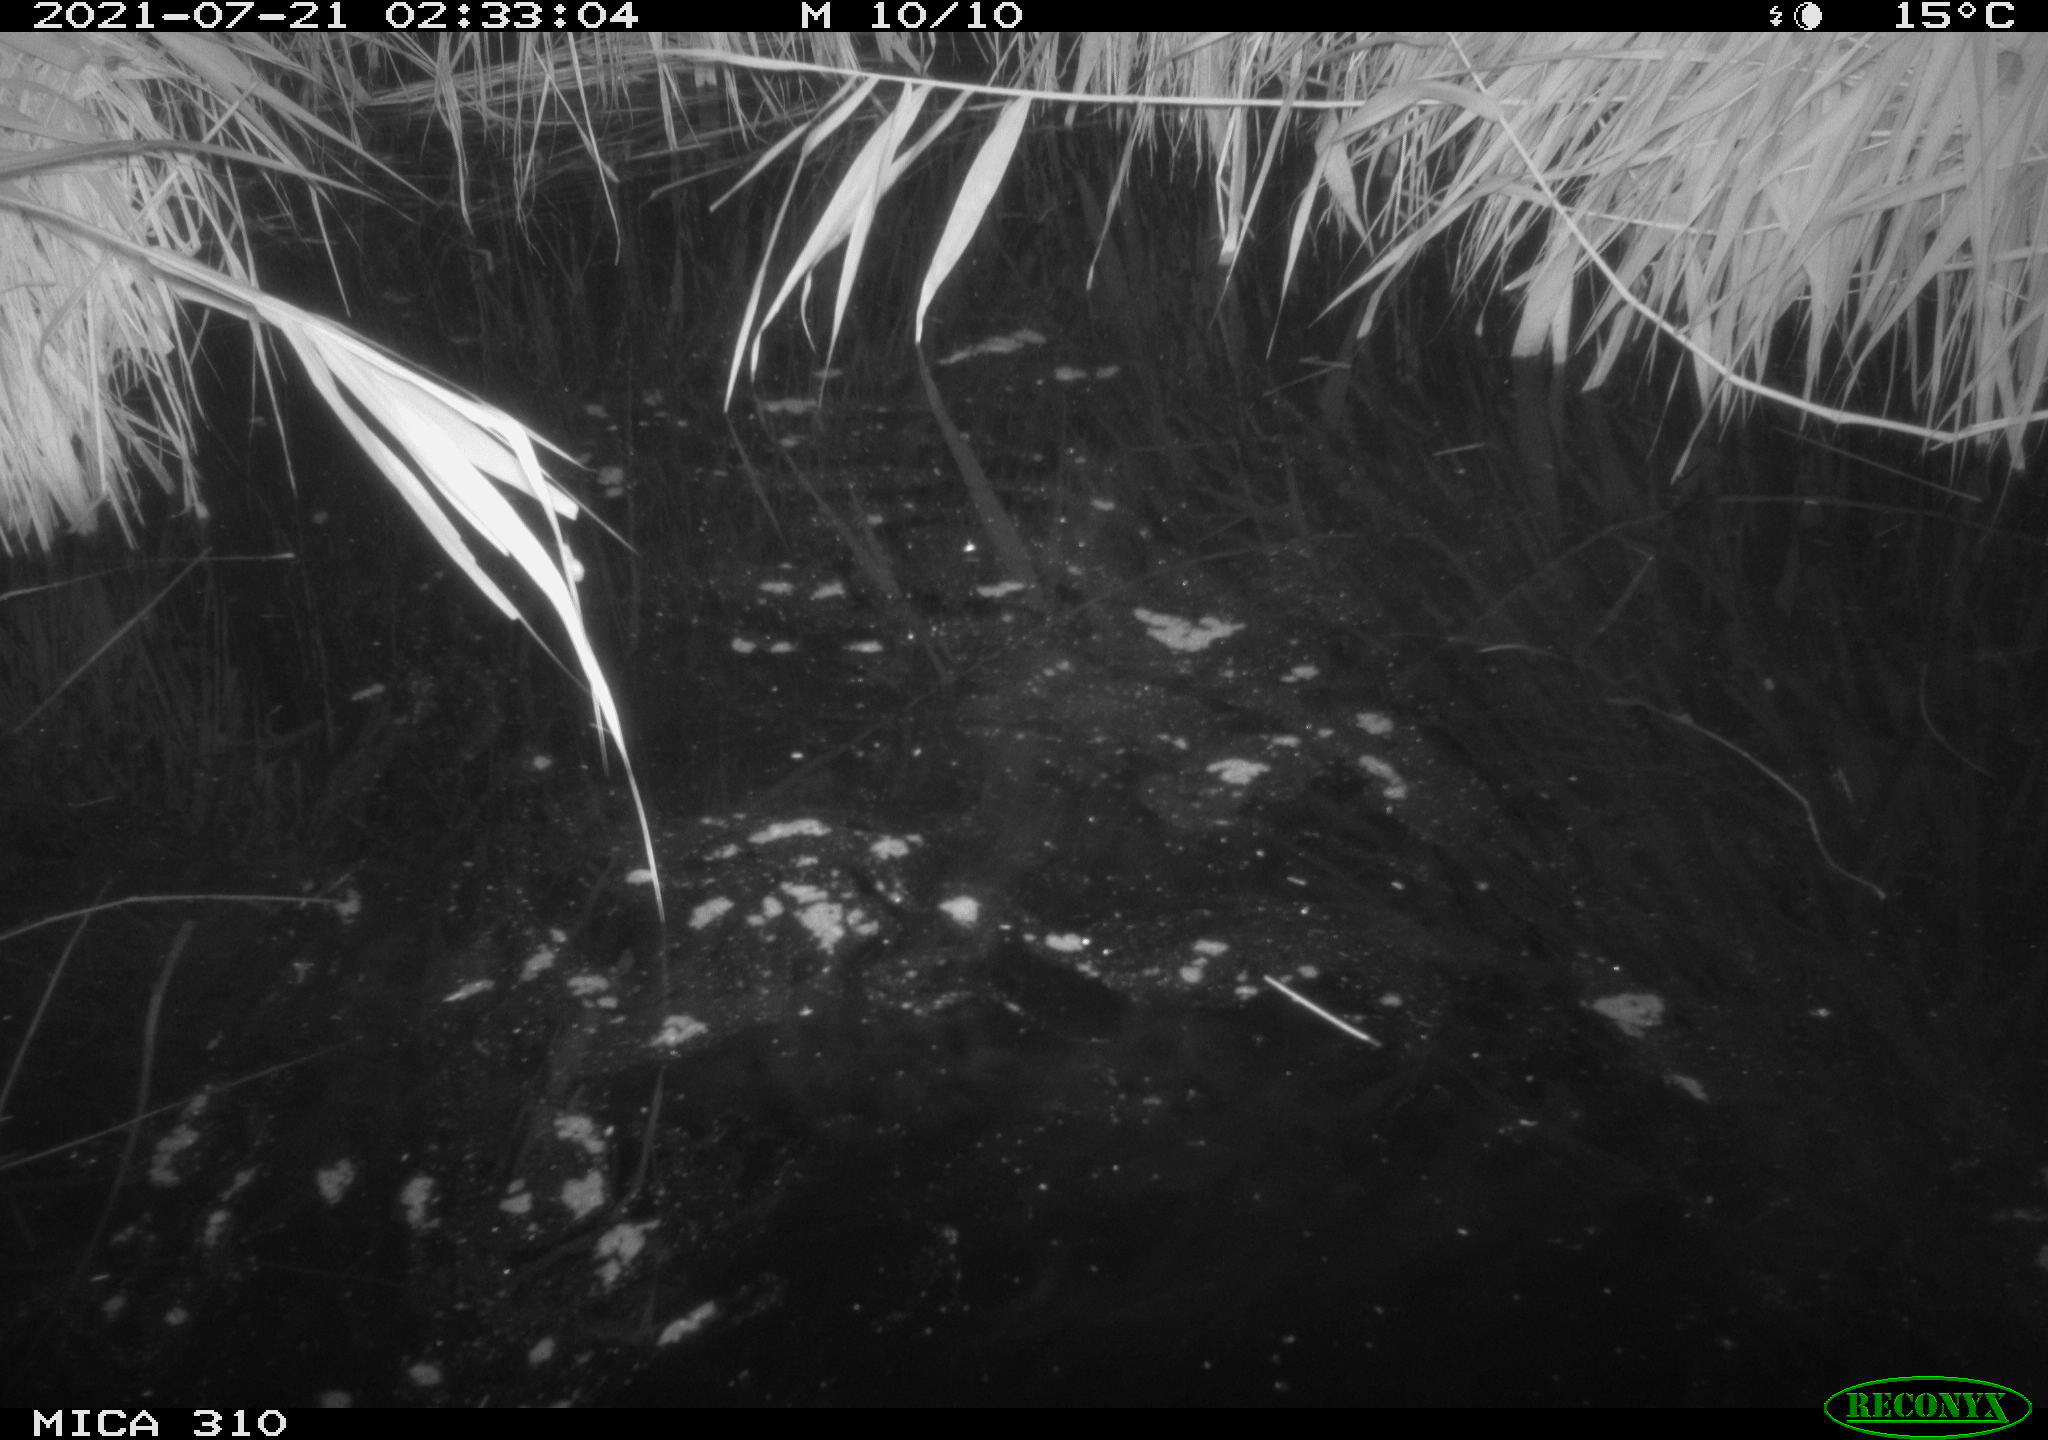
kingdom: Animalia
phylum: Chordata
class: Aves
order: Anseriformes
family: Anatidae
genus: Anas
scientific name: Anas platyrhynchos
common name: Mallard
